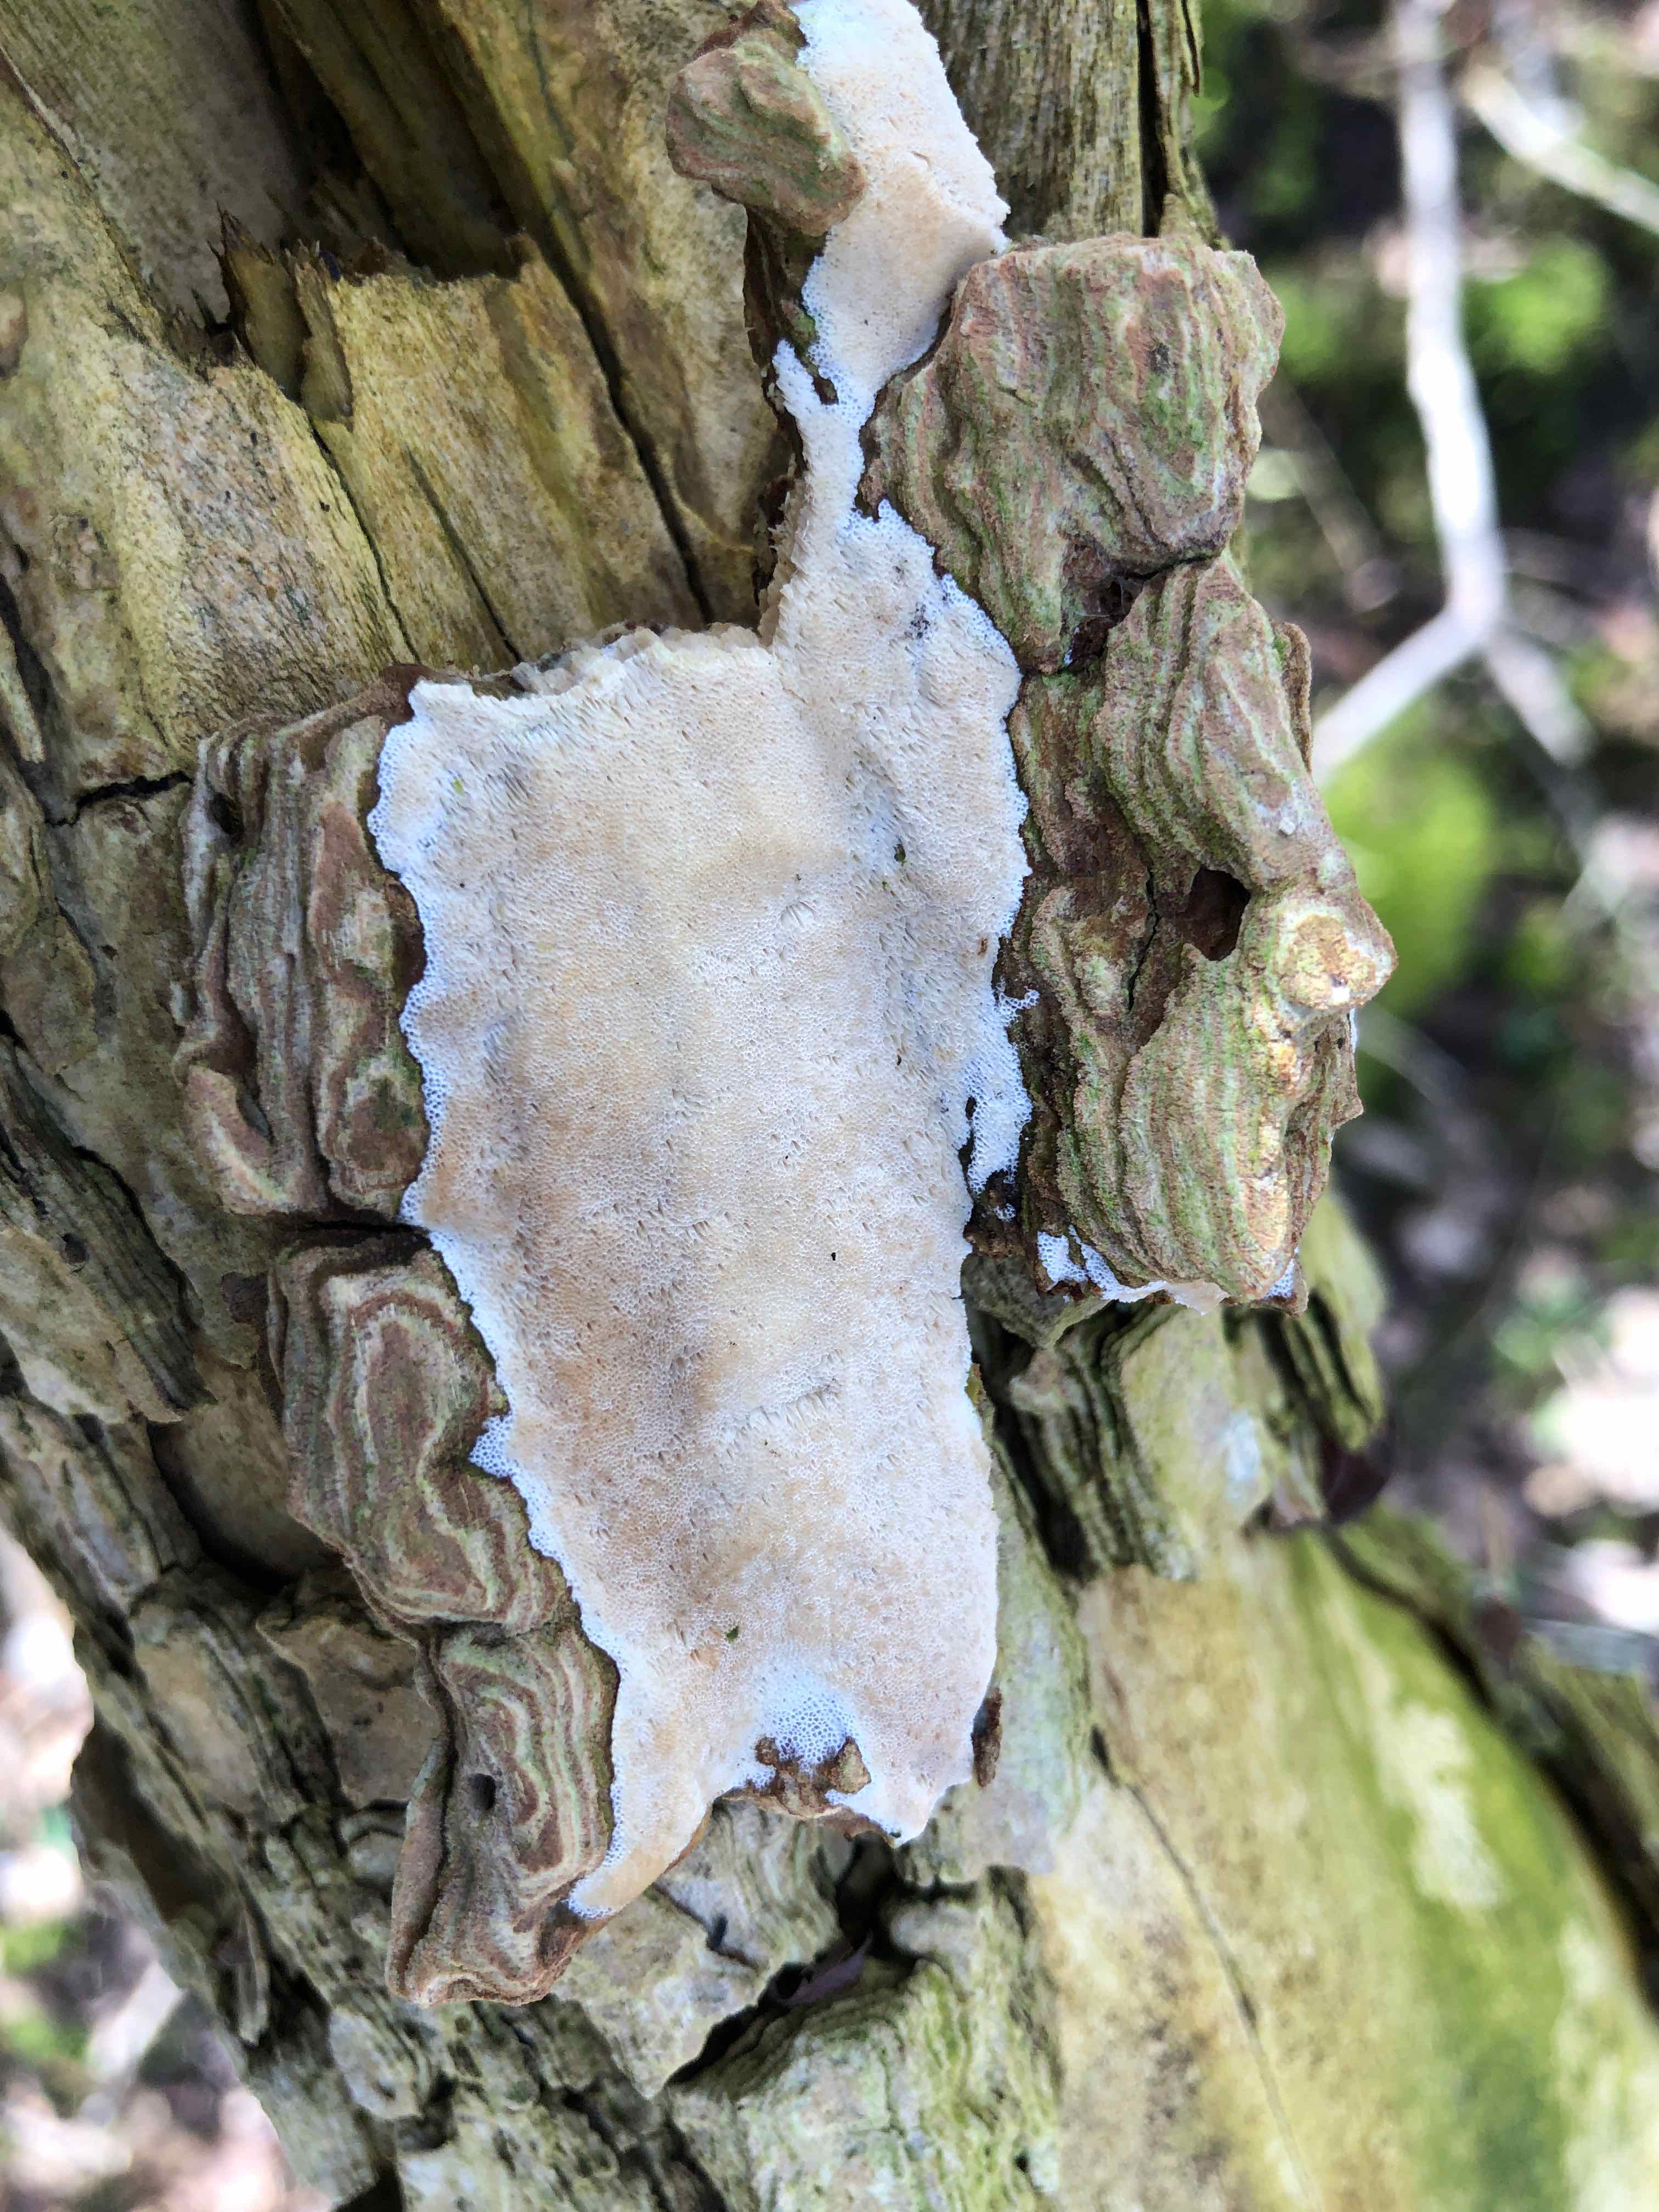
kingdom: Fungi
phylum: Basidiomycota
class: Agaricomycetes
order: Hymenochaetales
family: Oxyporaceae
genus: Oxyporus
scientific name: Oxyporus obducens
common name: skorpe-trylleporesvamp
